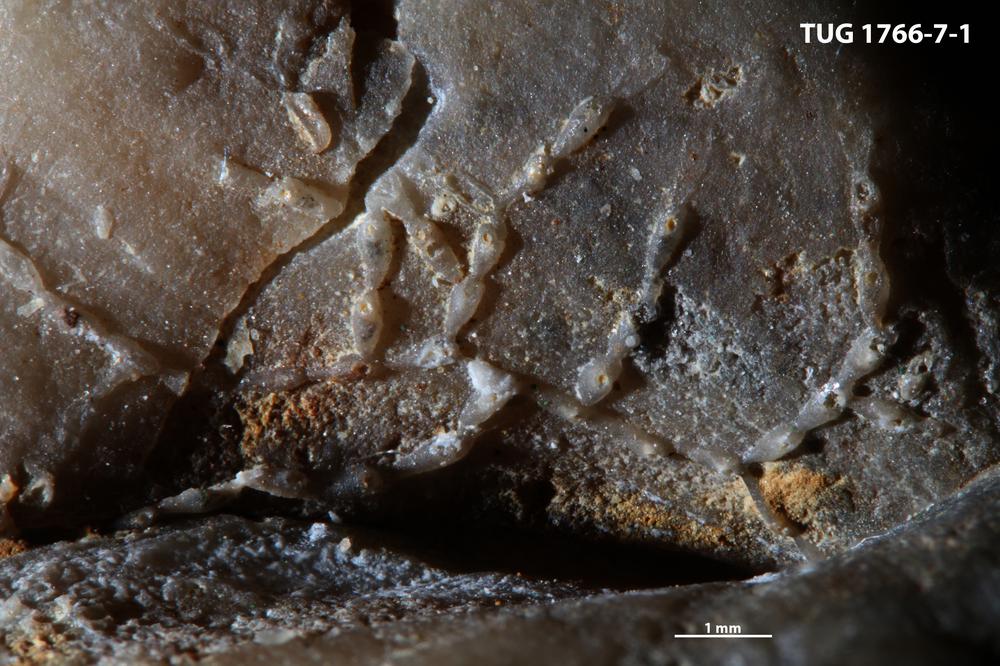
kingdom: Animalia
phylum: Bryozoa
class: Stenolaemata
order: Cyclostomatida
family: Corynotrypidae
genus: Corynotrypa
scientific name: Corynotrypa
